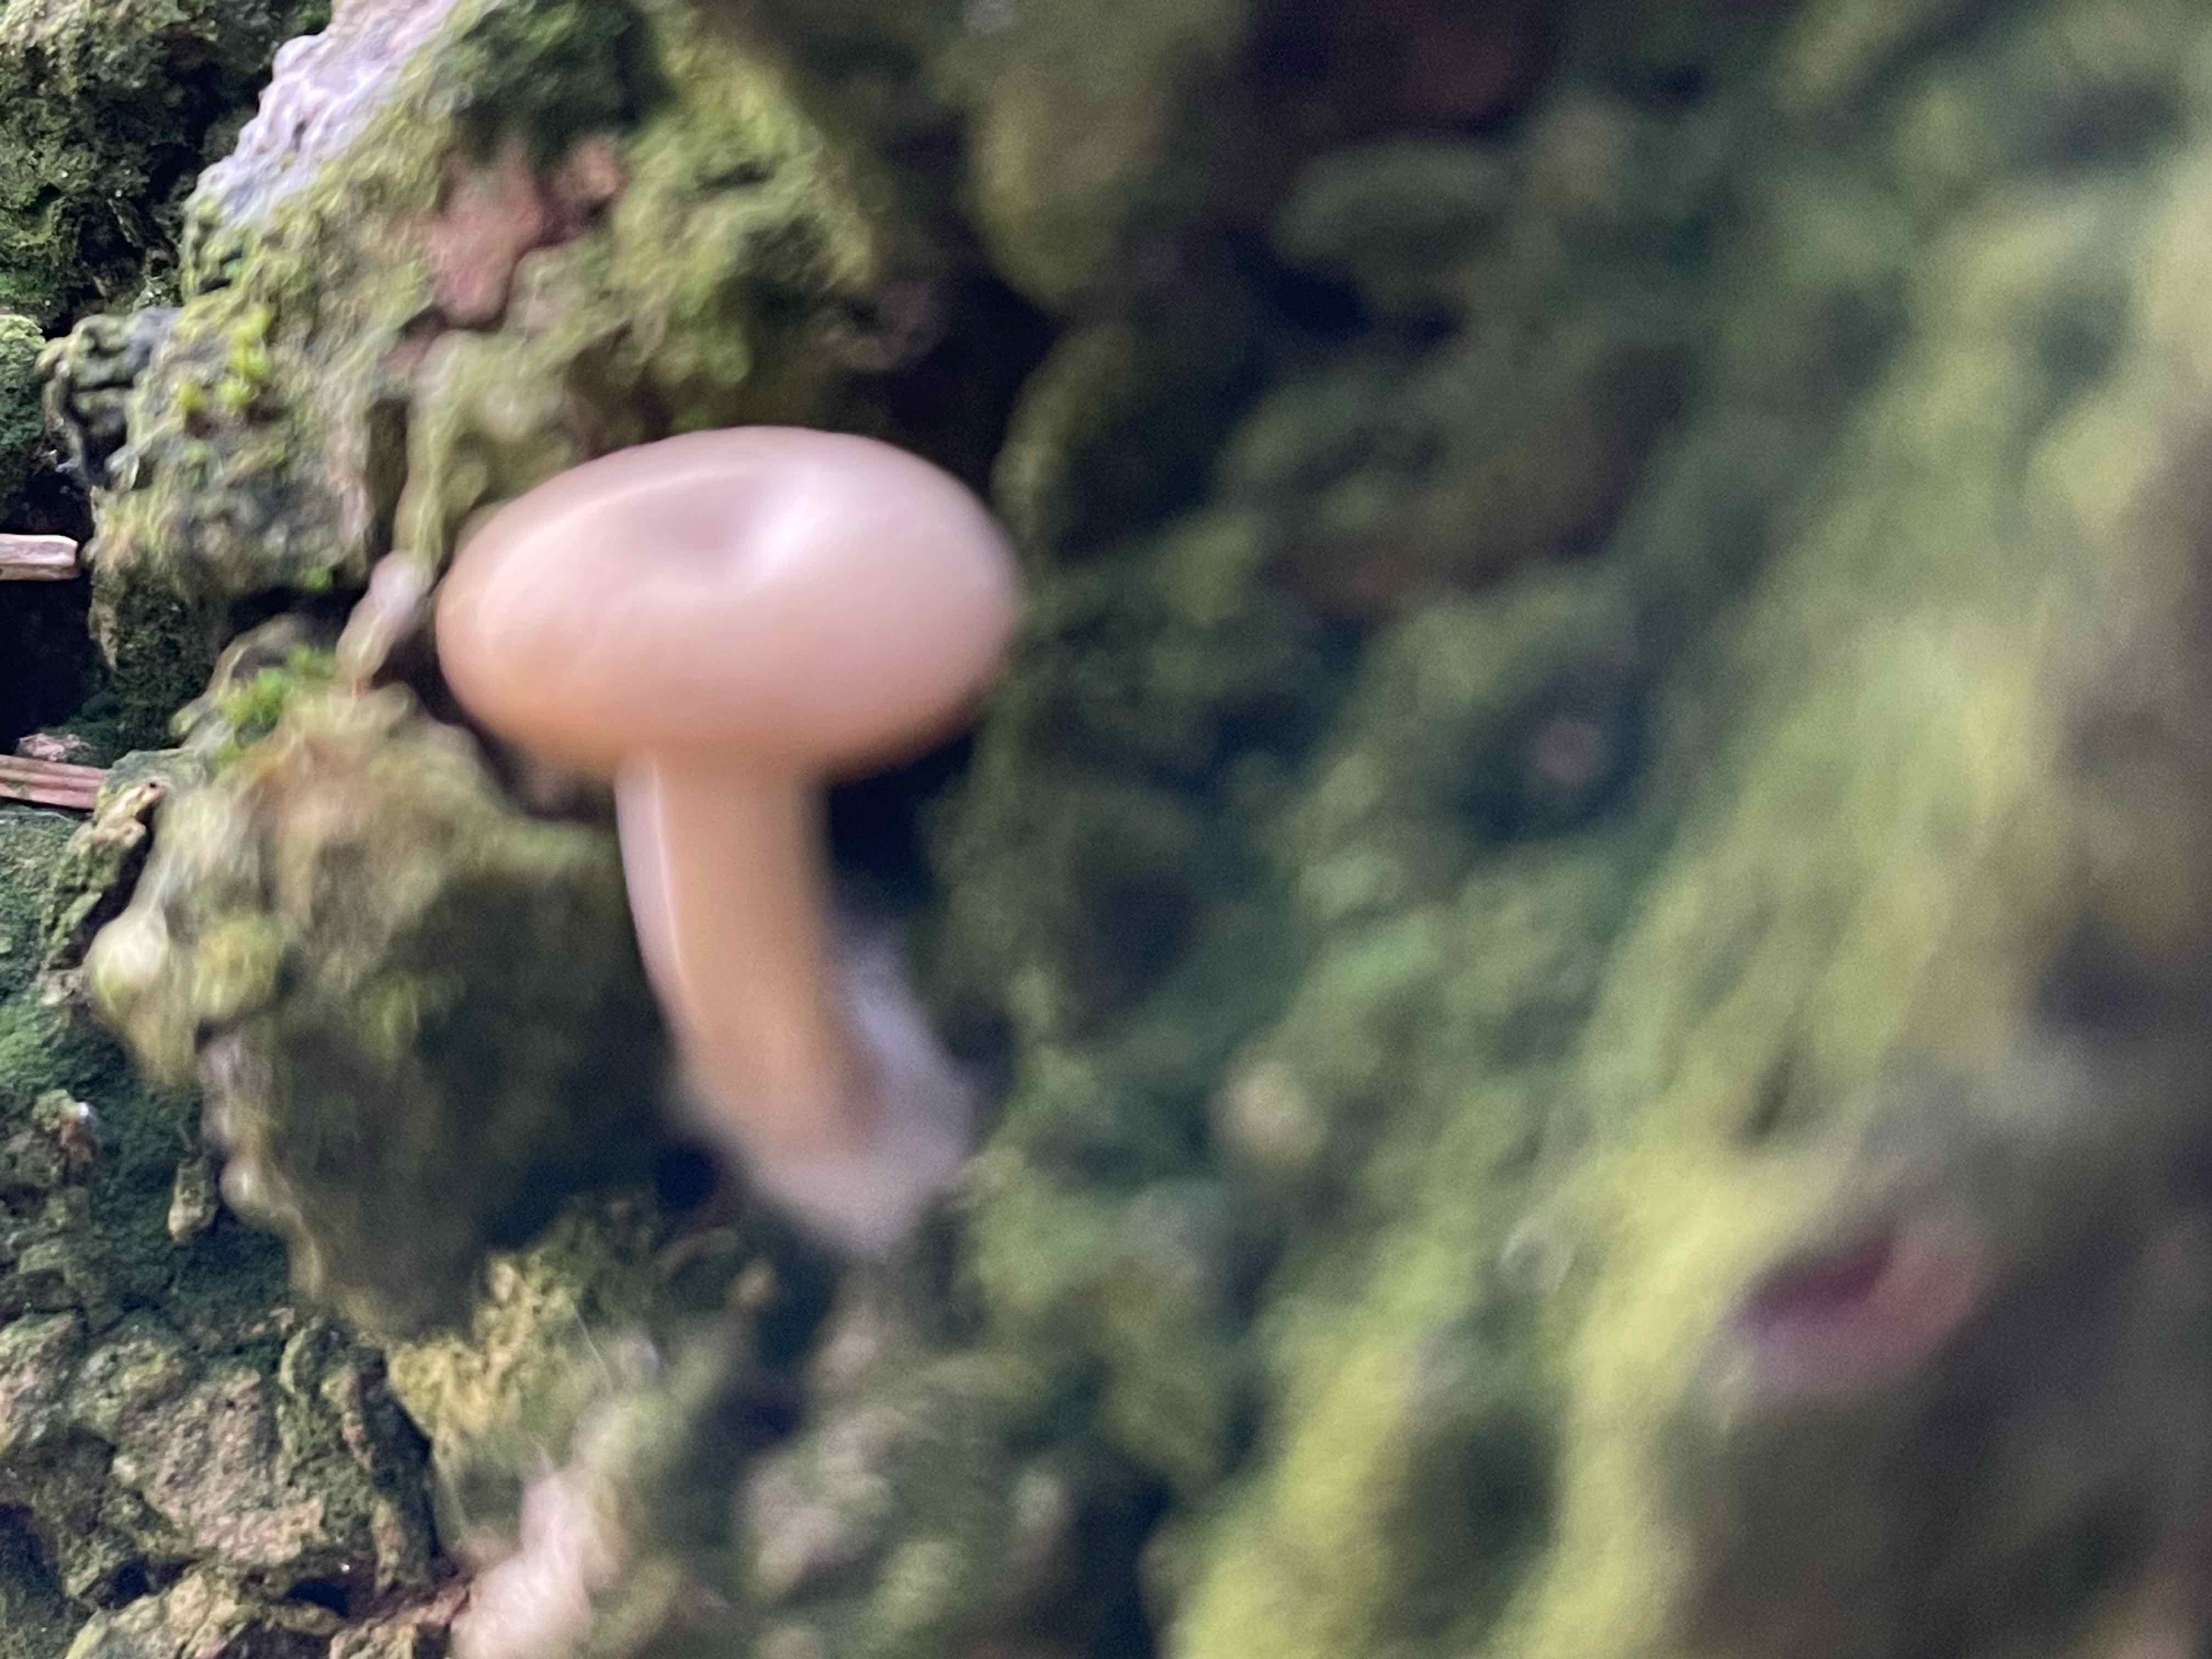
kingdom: Fungi
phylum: Basidiomycota
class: Agaricomycetes
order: Agaricales
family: Tricholomataceae
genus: Clitocybe
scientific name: Clitocybe
